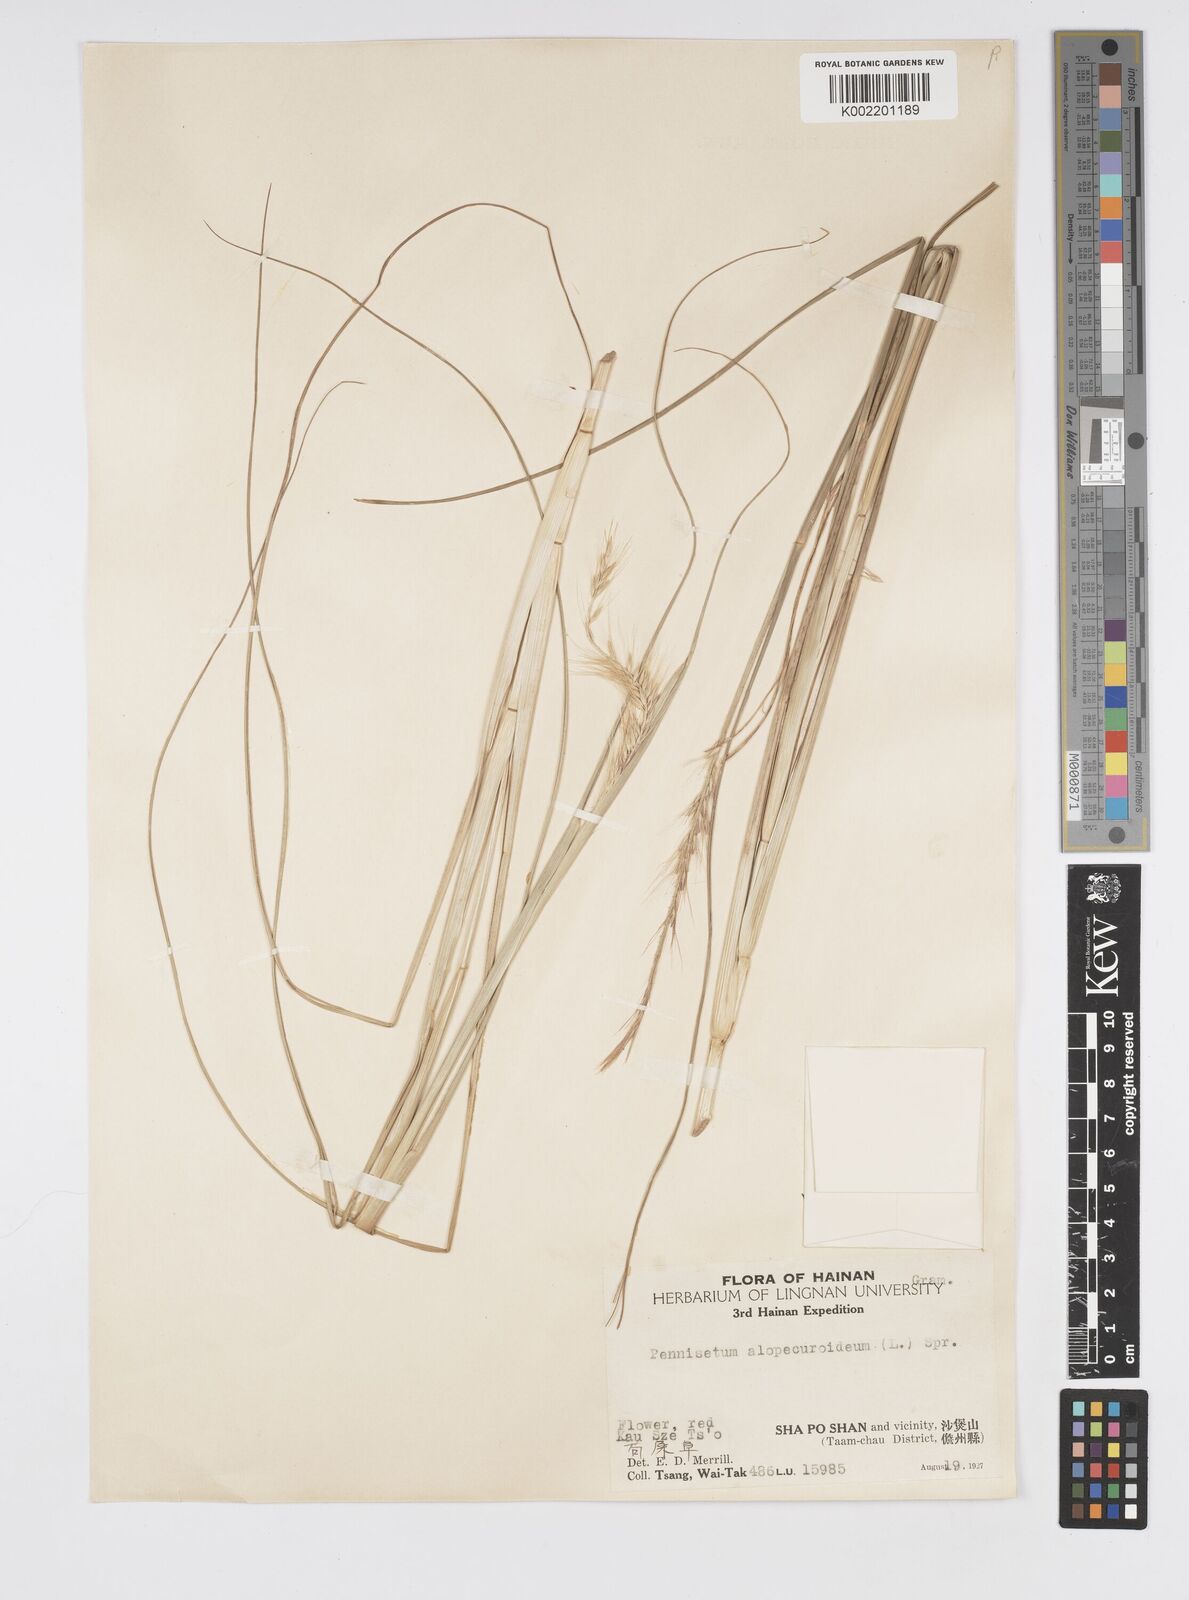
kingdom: Plantae
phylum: Tracheophyta
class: Liliopsida
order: Poales
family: Poaceae
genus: Cenchrus
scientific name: Cenchrus alopecuroides
